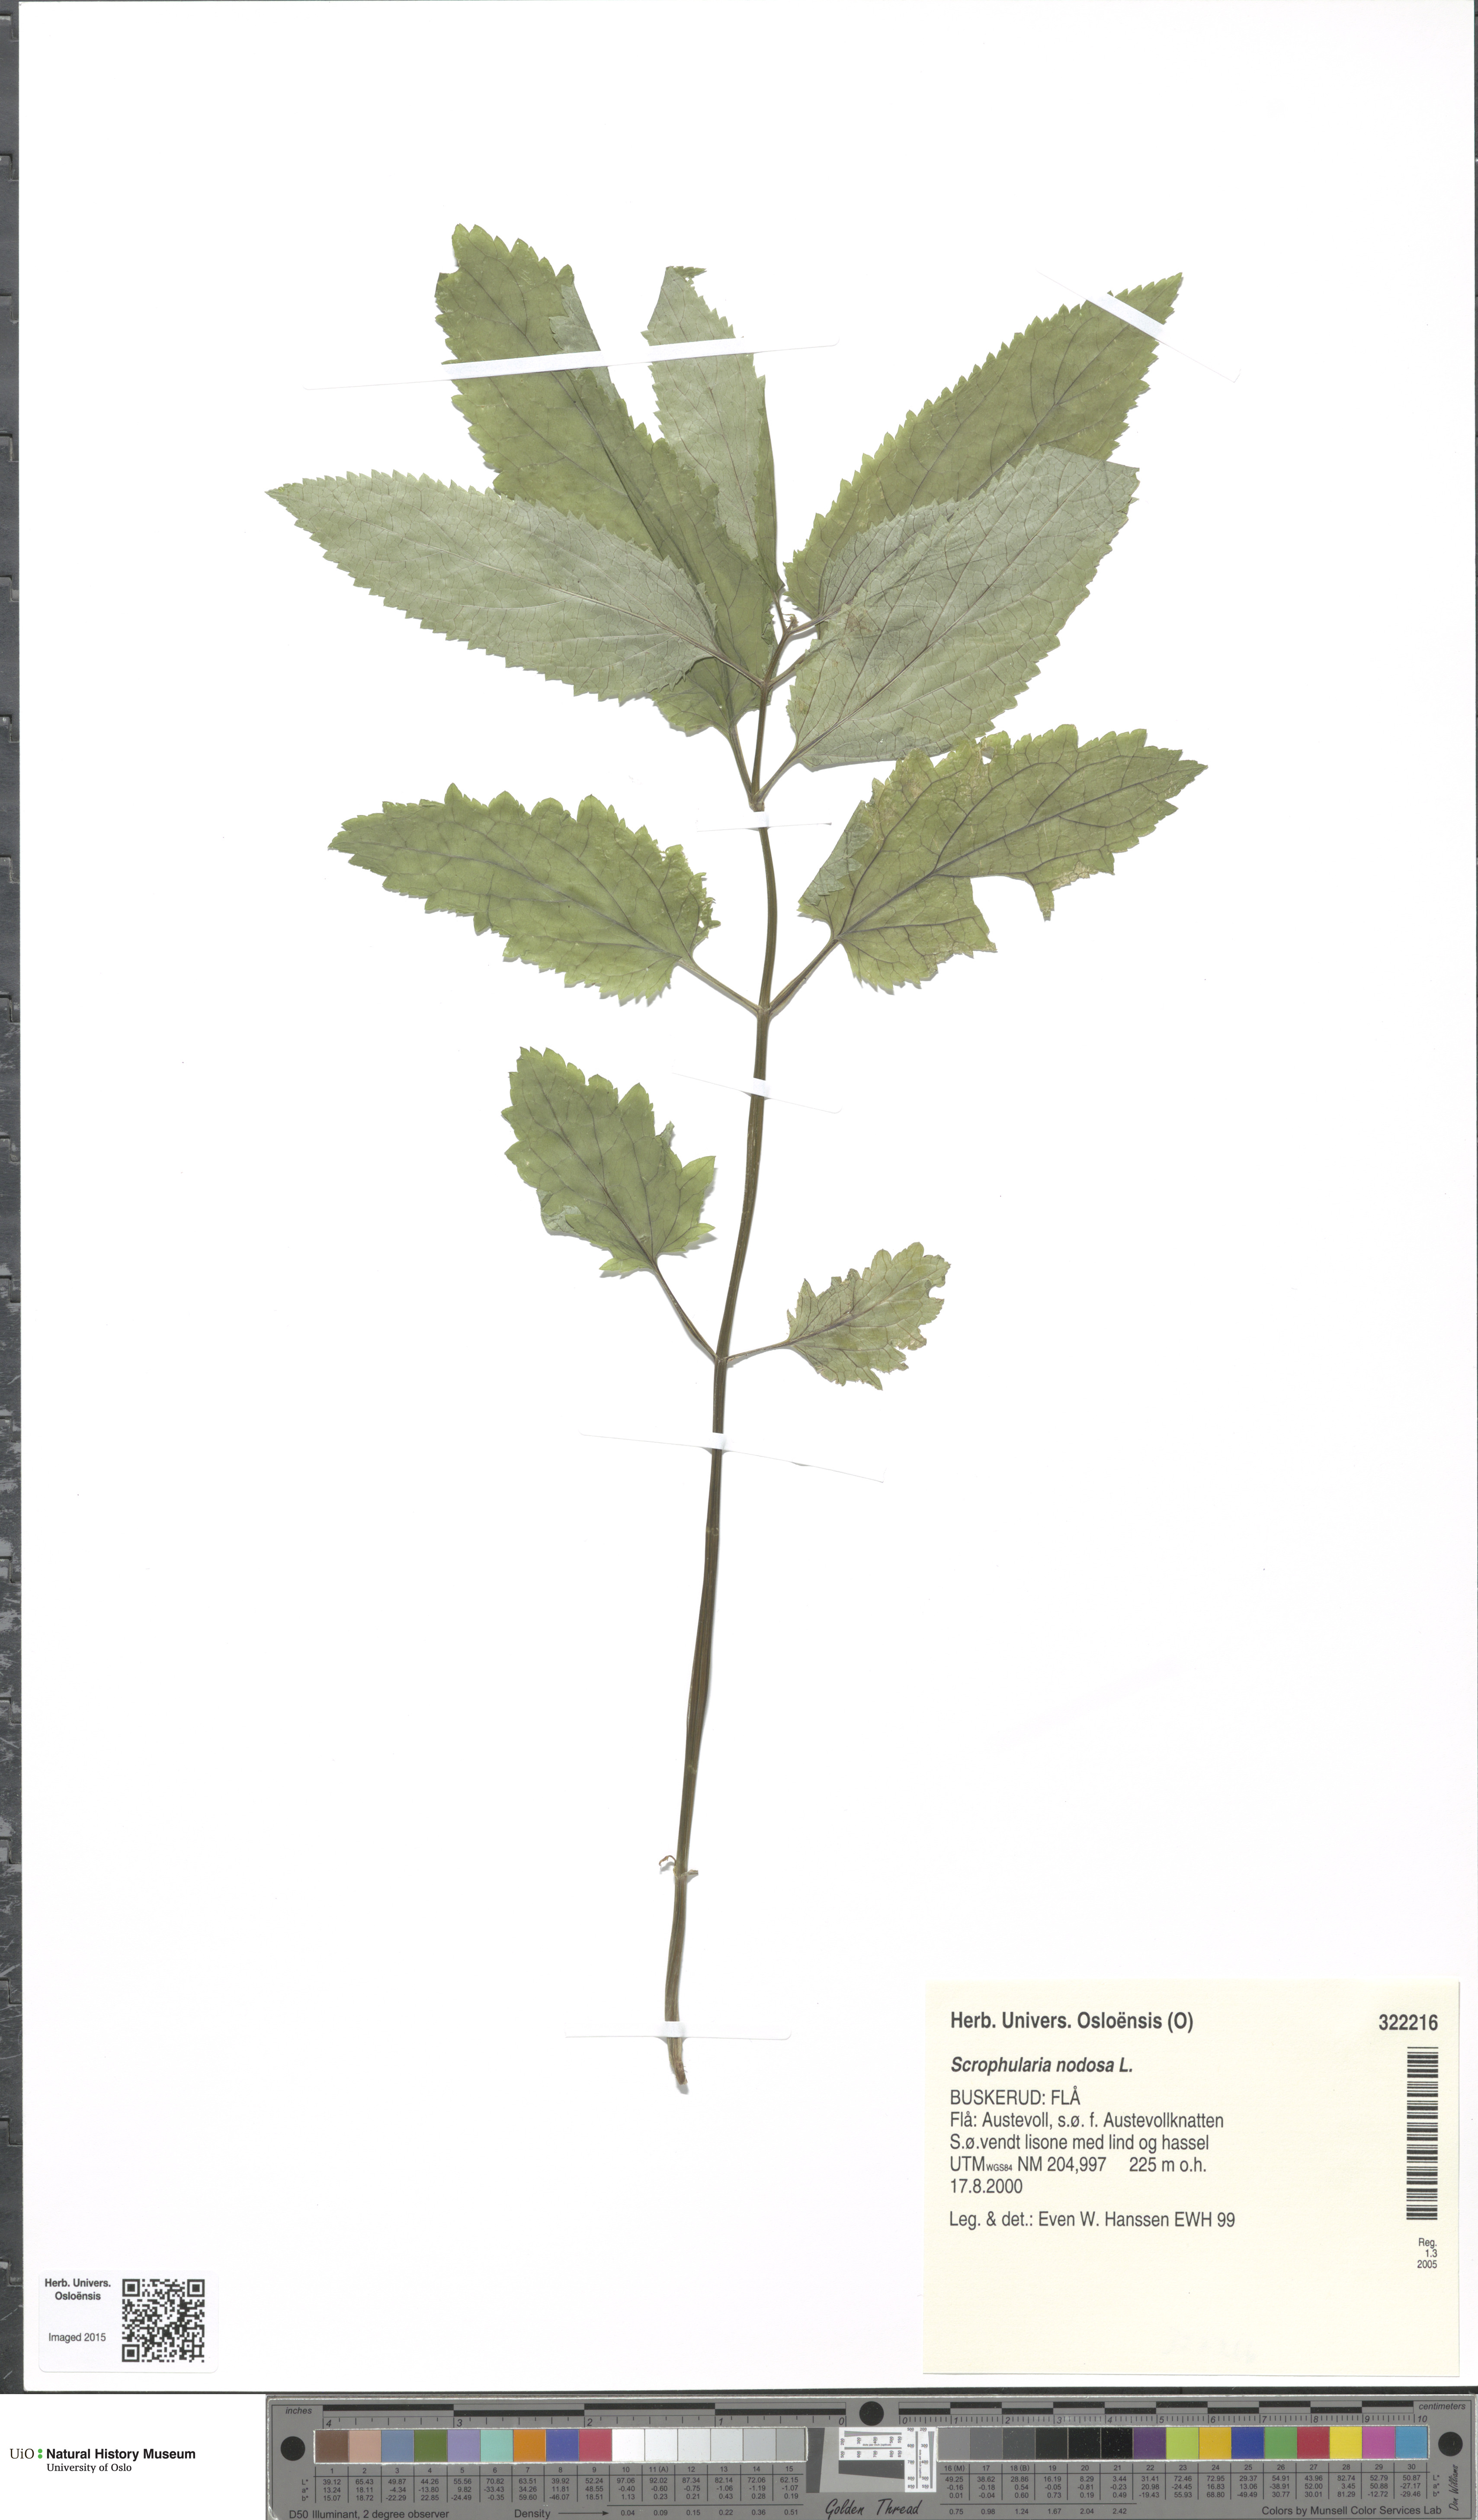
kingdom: Plantae
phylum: Tracheophyta
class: Magnoliopsida
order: Lamiales
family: Scrophulariaceae
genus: Scrophularia
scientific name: Scrophularia nodosa
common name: Common figwort
